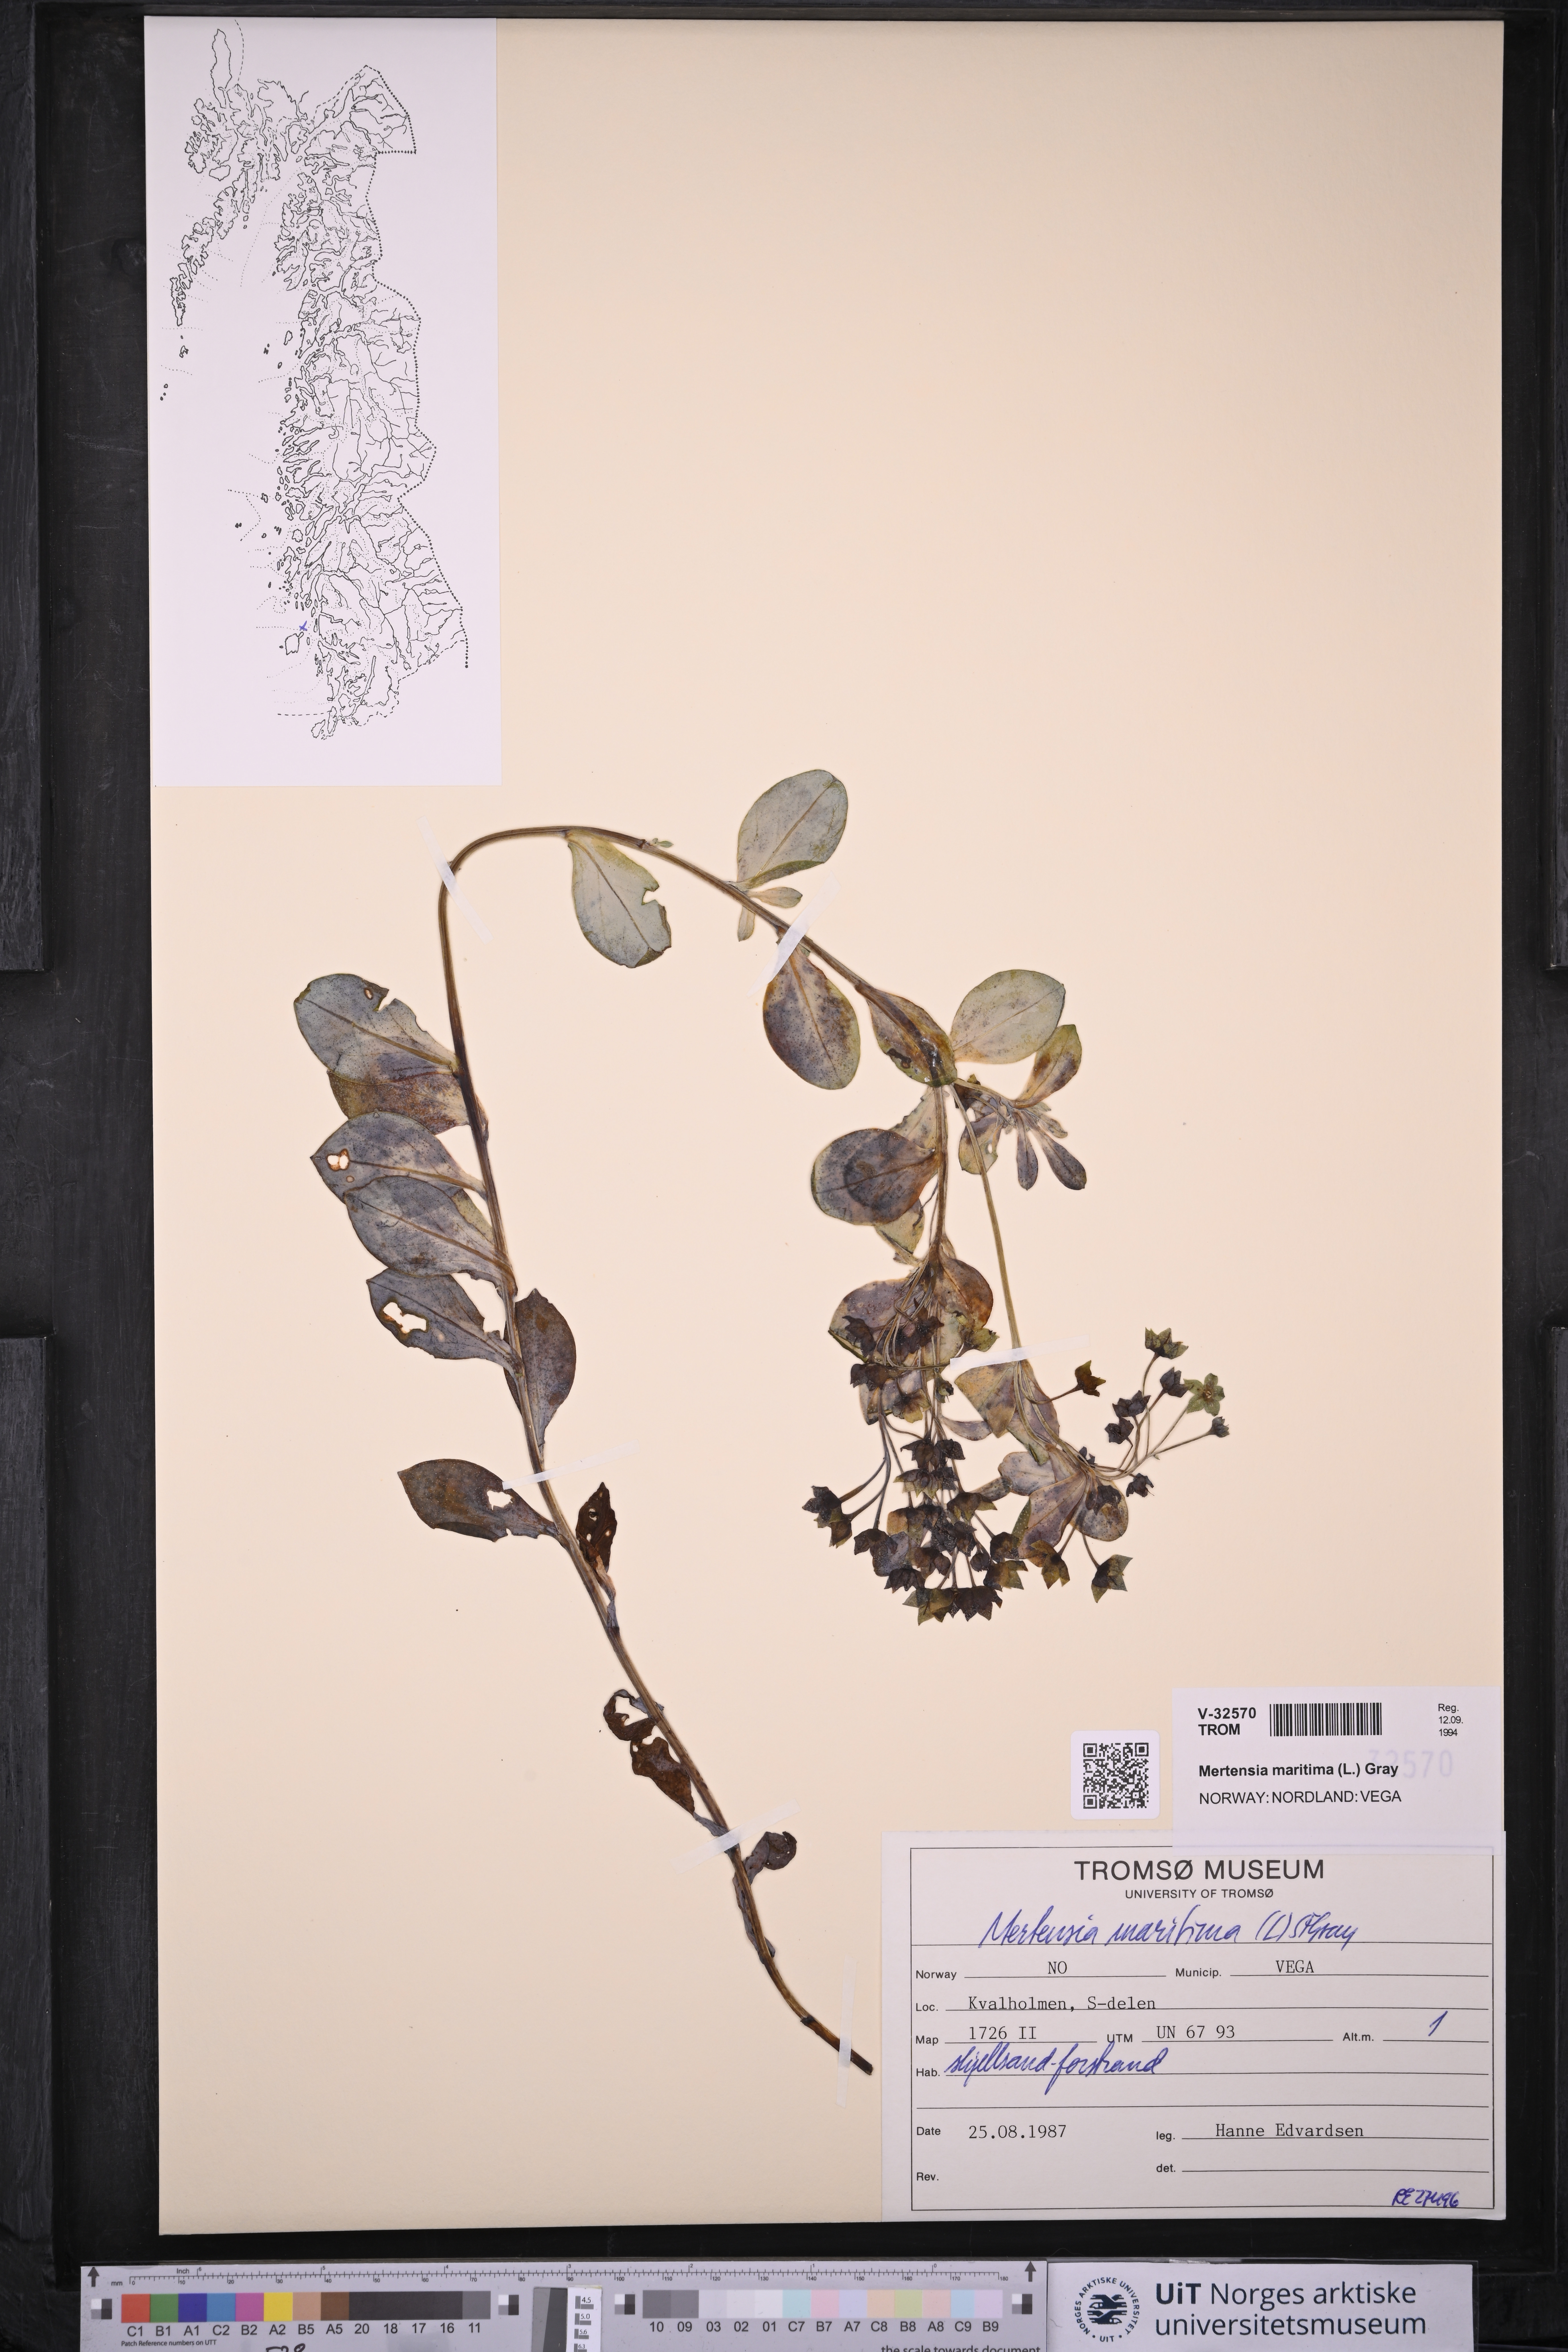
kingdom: Plantae
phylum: Tracheophyta
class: Magnoliopsida
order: Boraginales
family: Boraginaceae
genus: Mertensia
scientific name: Mertensia maritima
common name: Oysterplant
